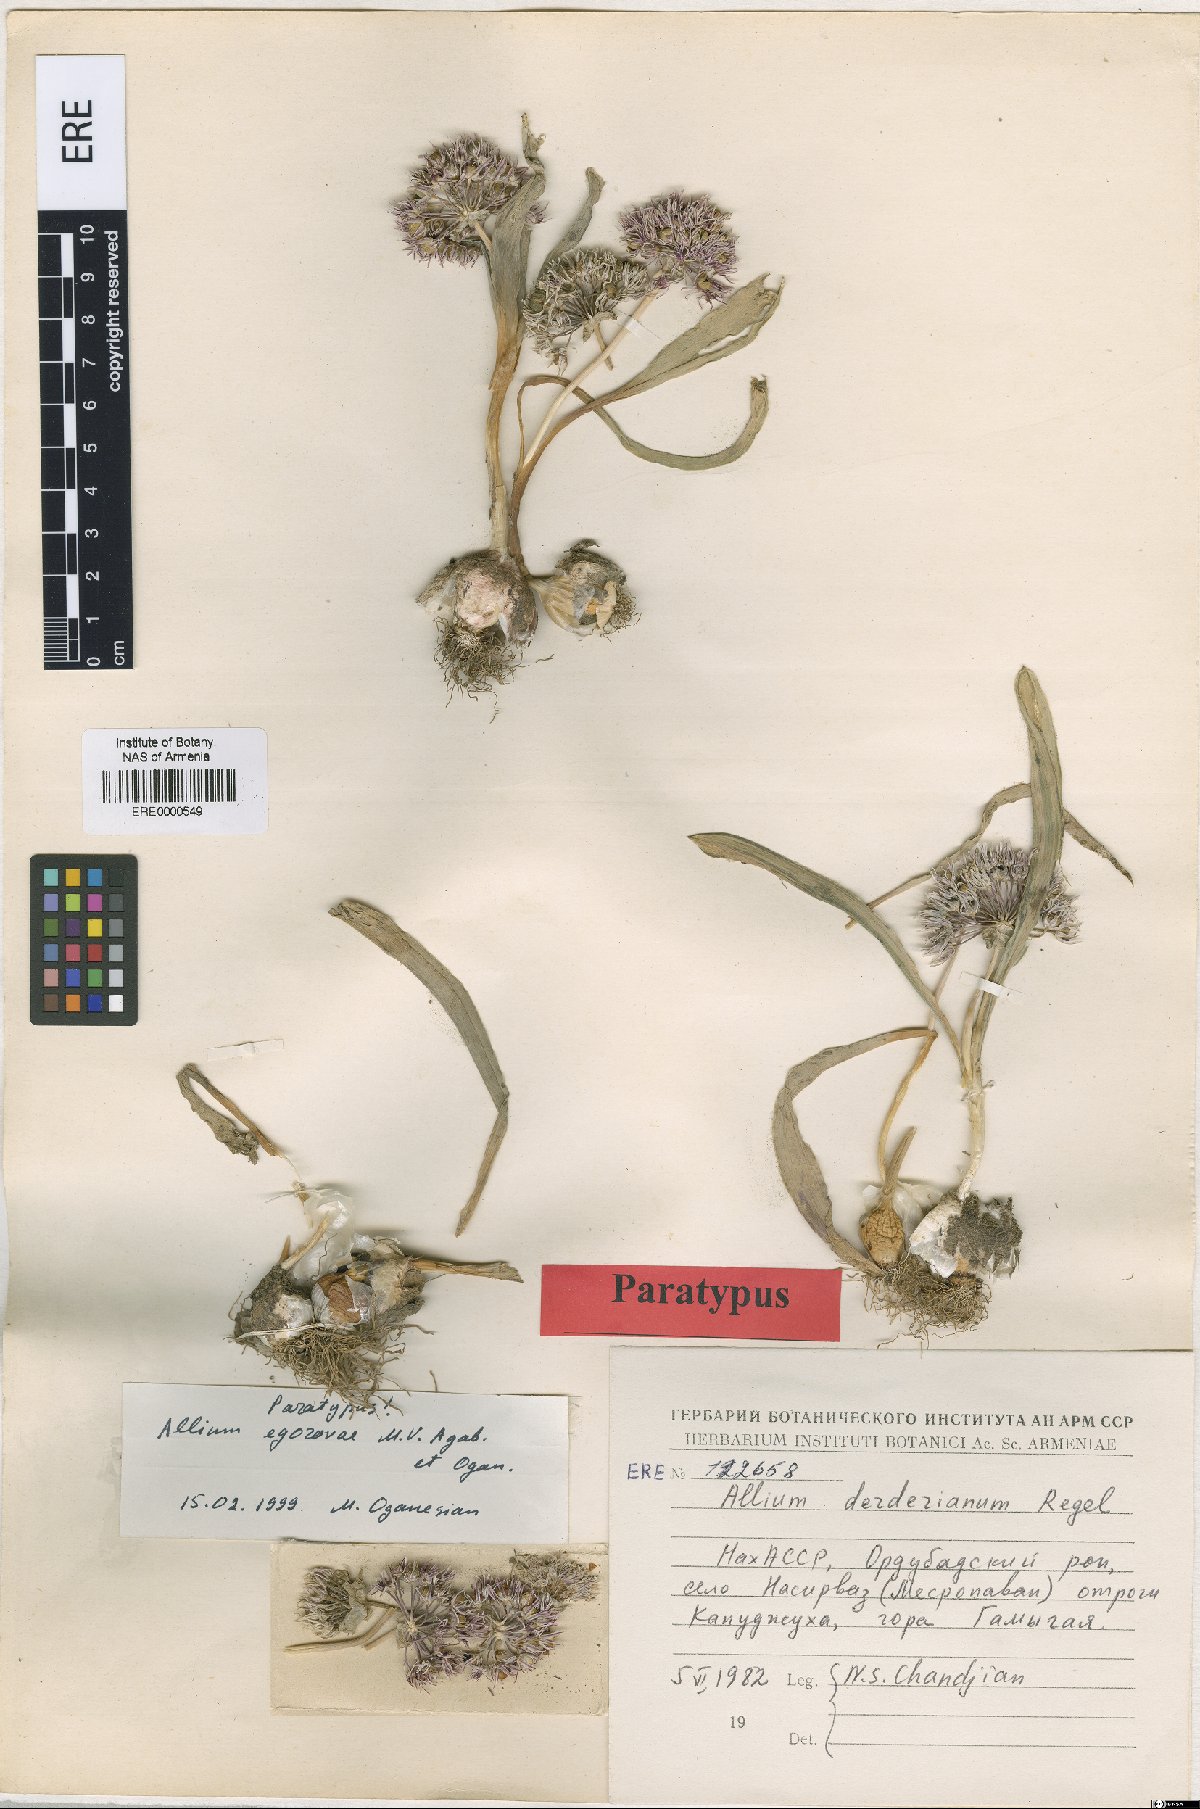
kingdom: Plantae
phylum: Tracheophyta
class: Liliopsida
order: Asparagales
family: Amaryllidaceae
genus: Allium
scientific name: Allium egorovae
